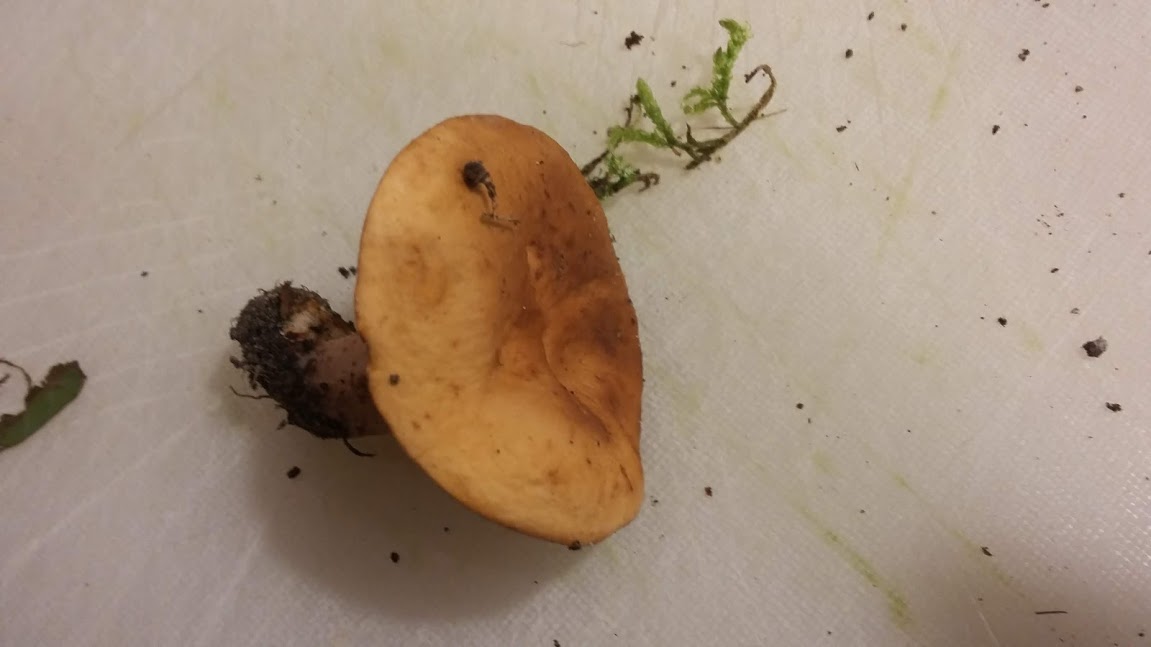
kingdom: Fungi
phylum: Basidiomycota
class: Agaricomycetes
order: Russulales
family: Russulaceae
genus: Lactarius
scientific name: Lactarius
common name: mælkehat
